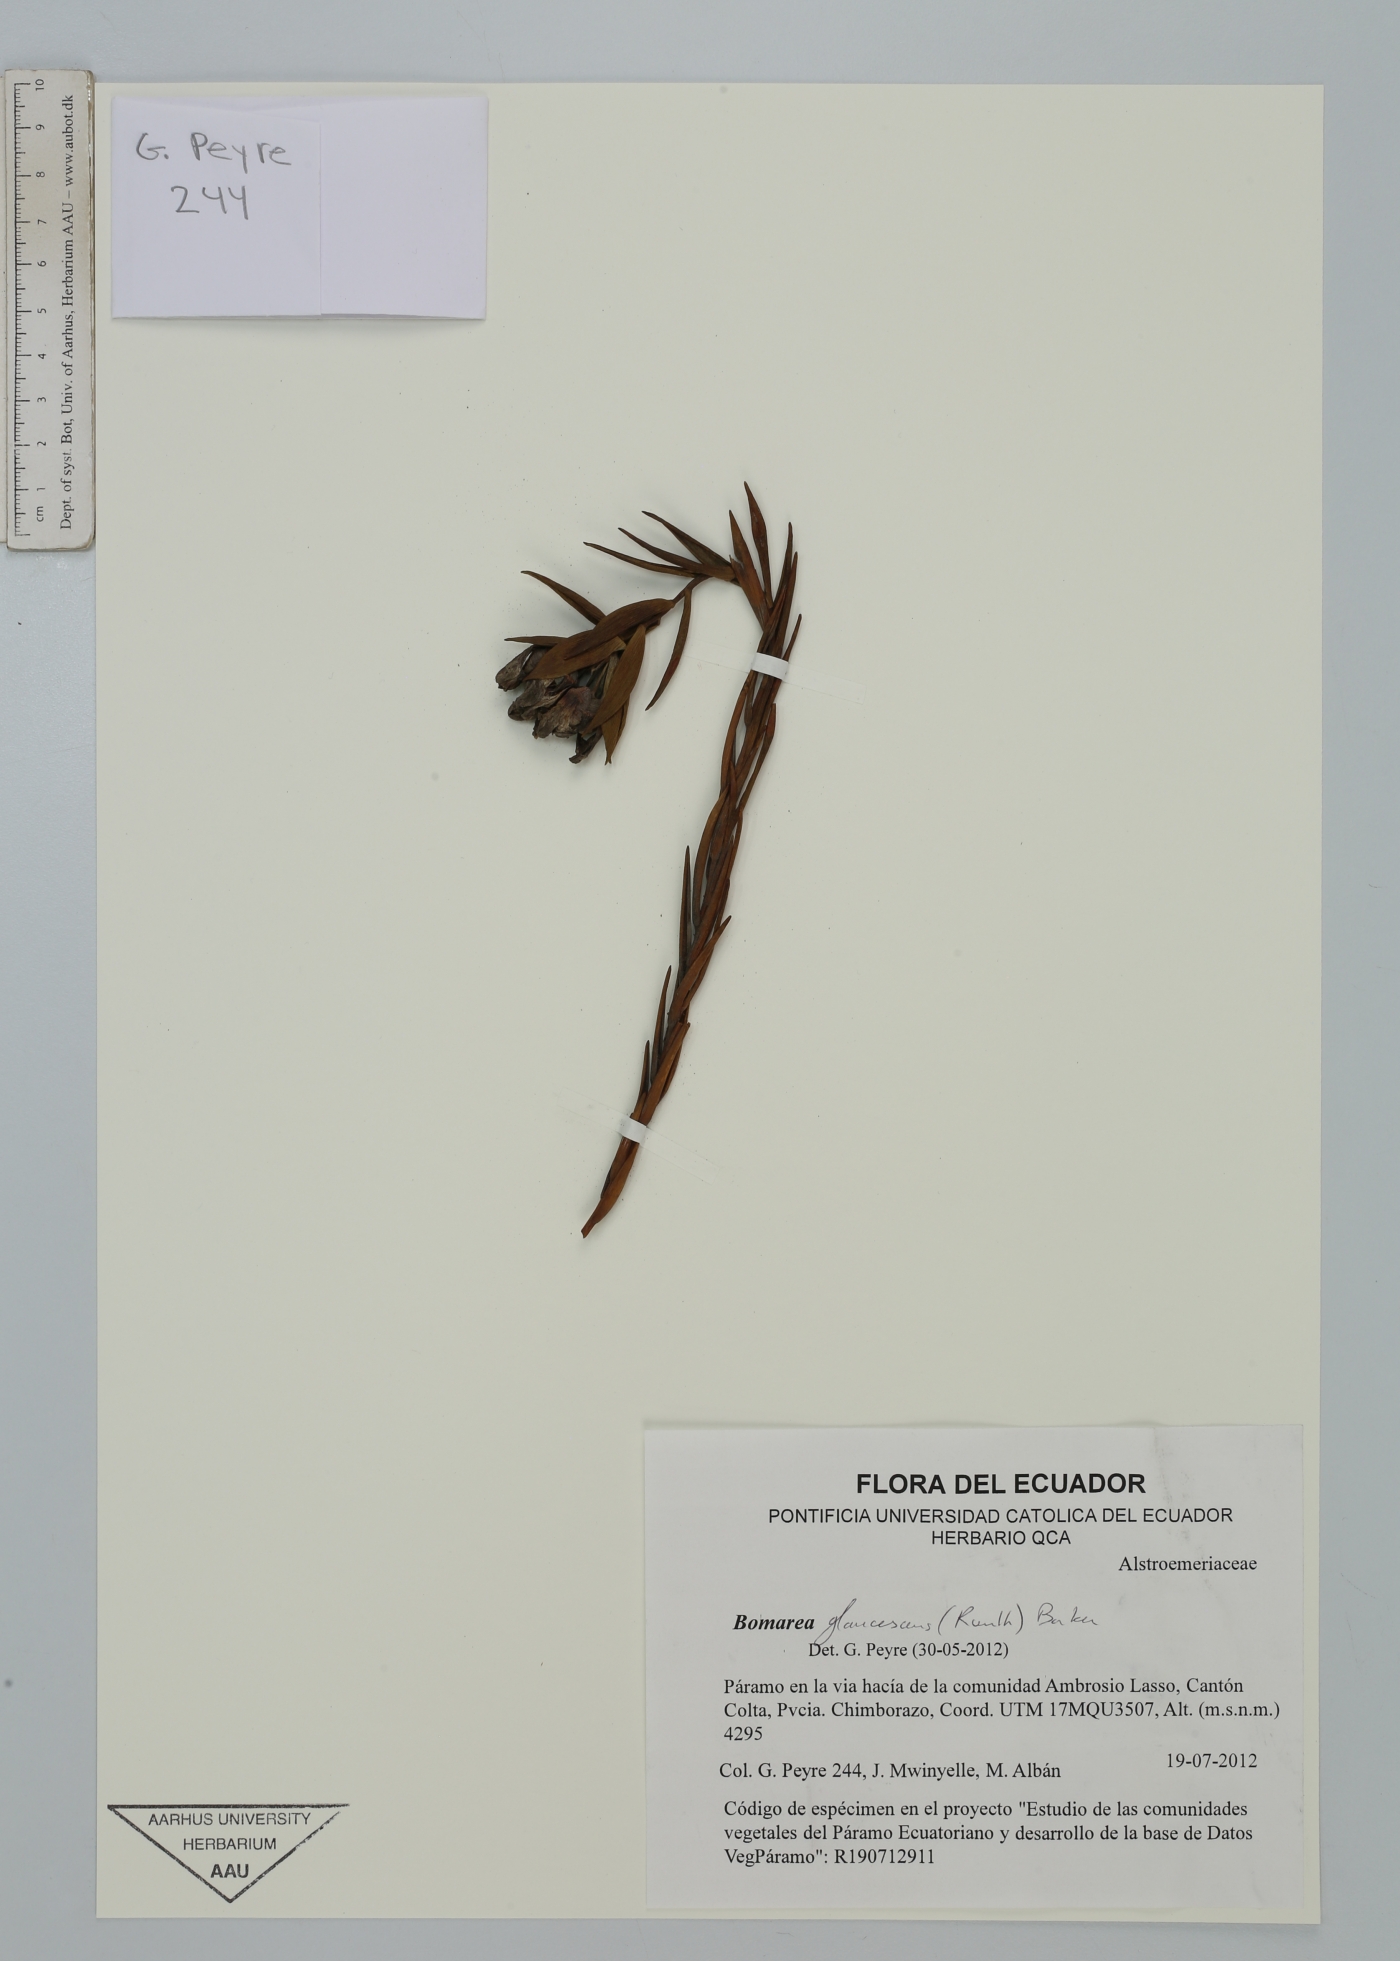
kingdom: Plantae
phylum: Tracheophyta
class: Liliopsida
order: Liliales
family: Alstroemeriaceae
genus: Bomarea
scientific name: Bomarea glaucescens
